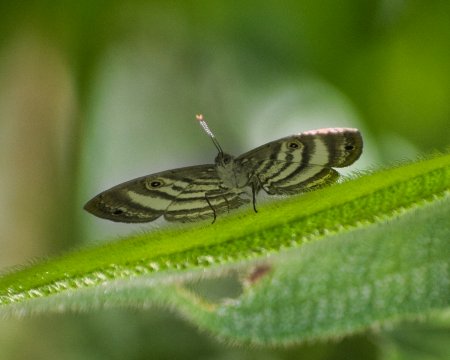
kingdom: Animalia
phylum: Arthropoda
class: Insecta
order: Lepidoptera
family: Riodinidae
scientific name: Riodinidae
